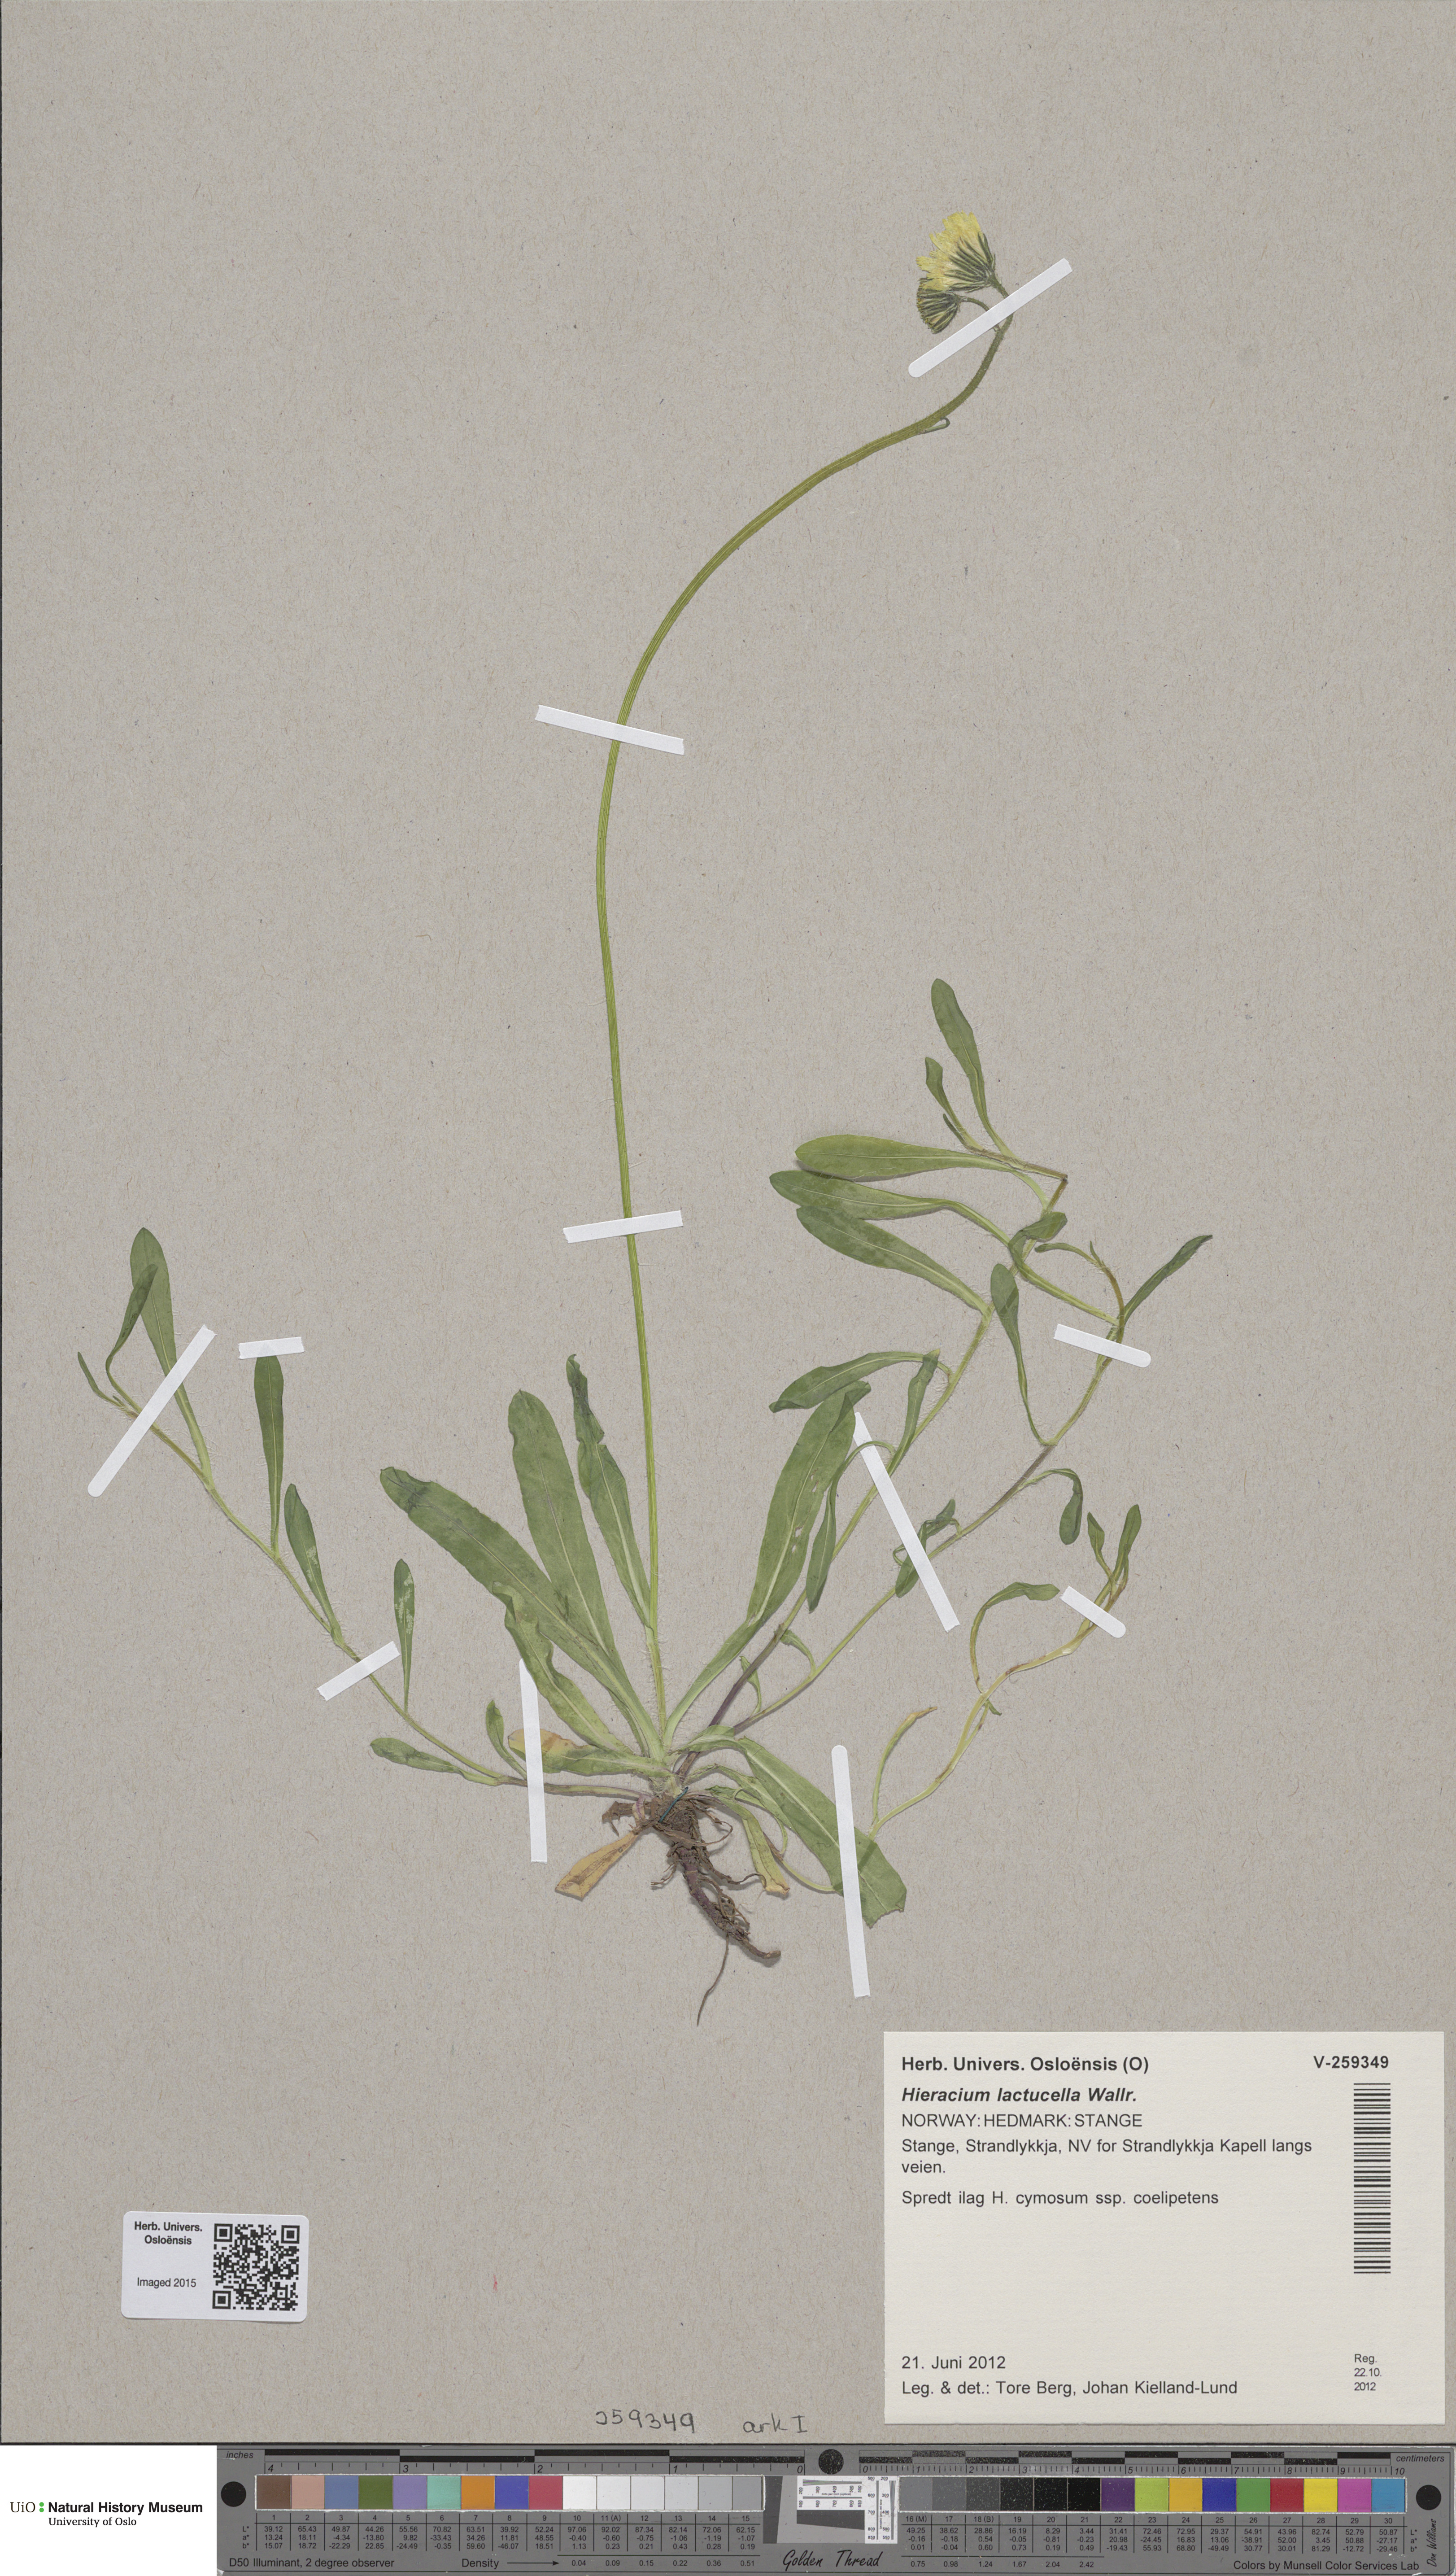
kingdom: Plantae
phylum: Tracheophyta
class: Magnoliopsida
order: Asterales
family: Asteraceae
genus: Pilosella
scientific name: Pilosella lactucella
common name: Glaucous fox-and-cubs
